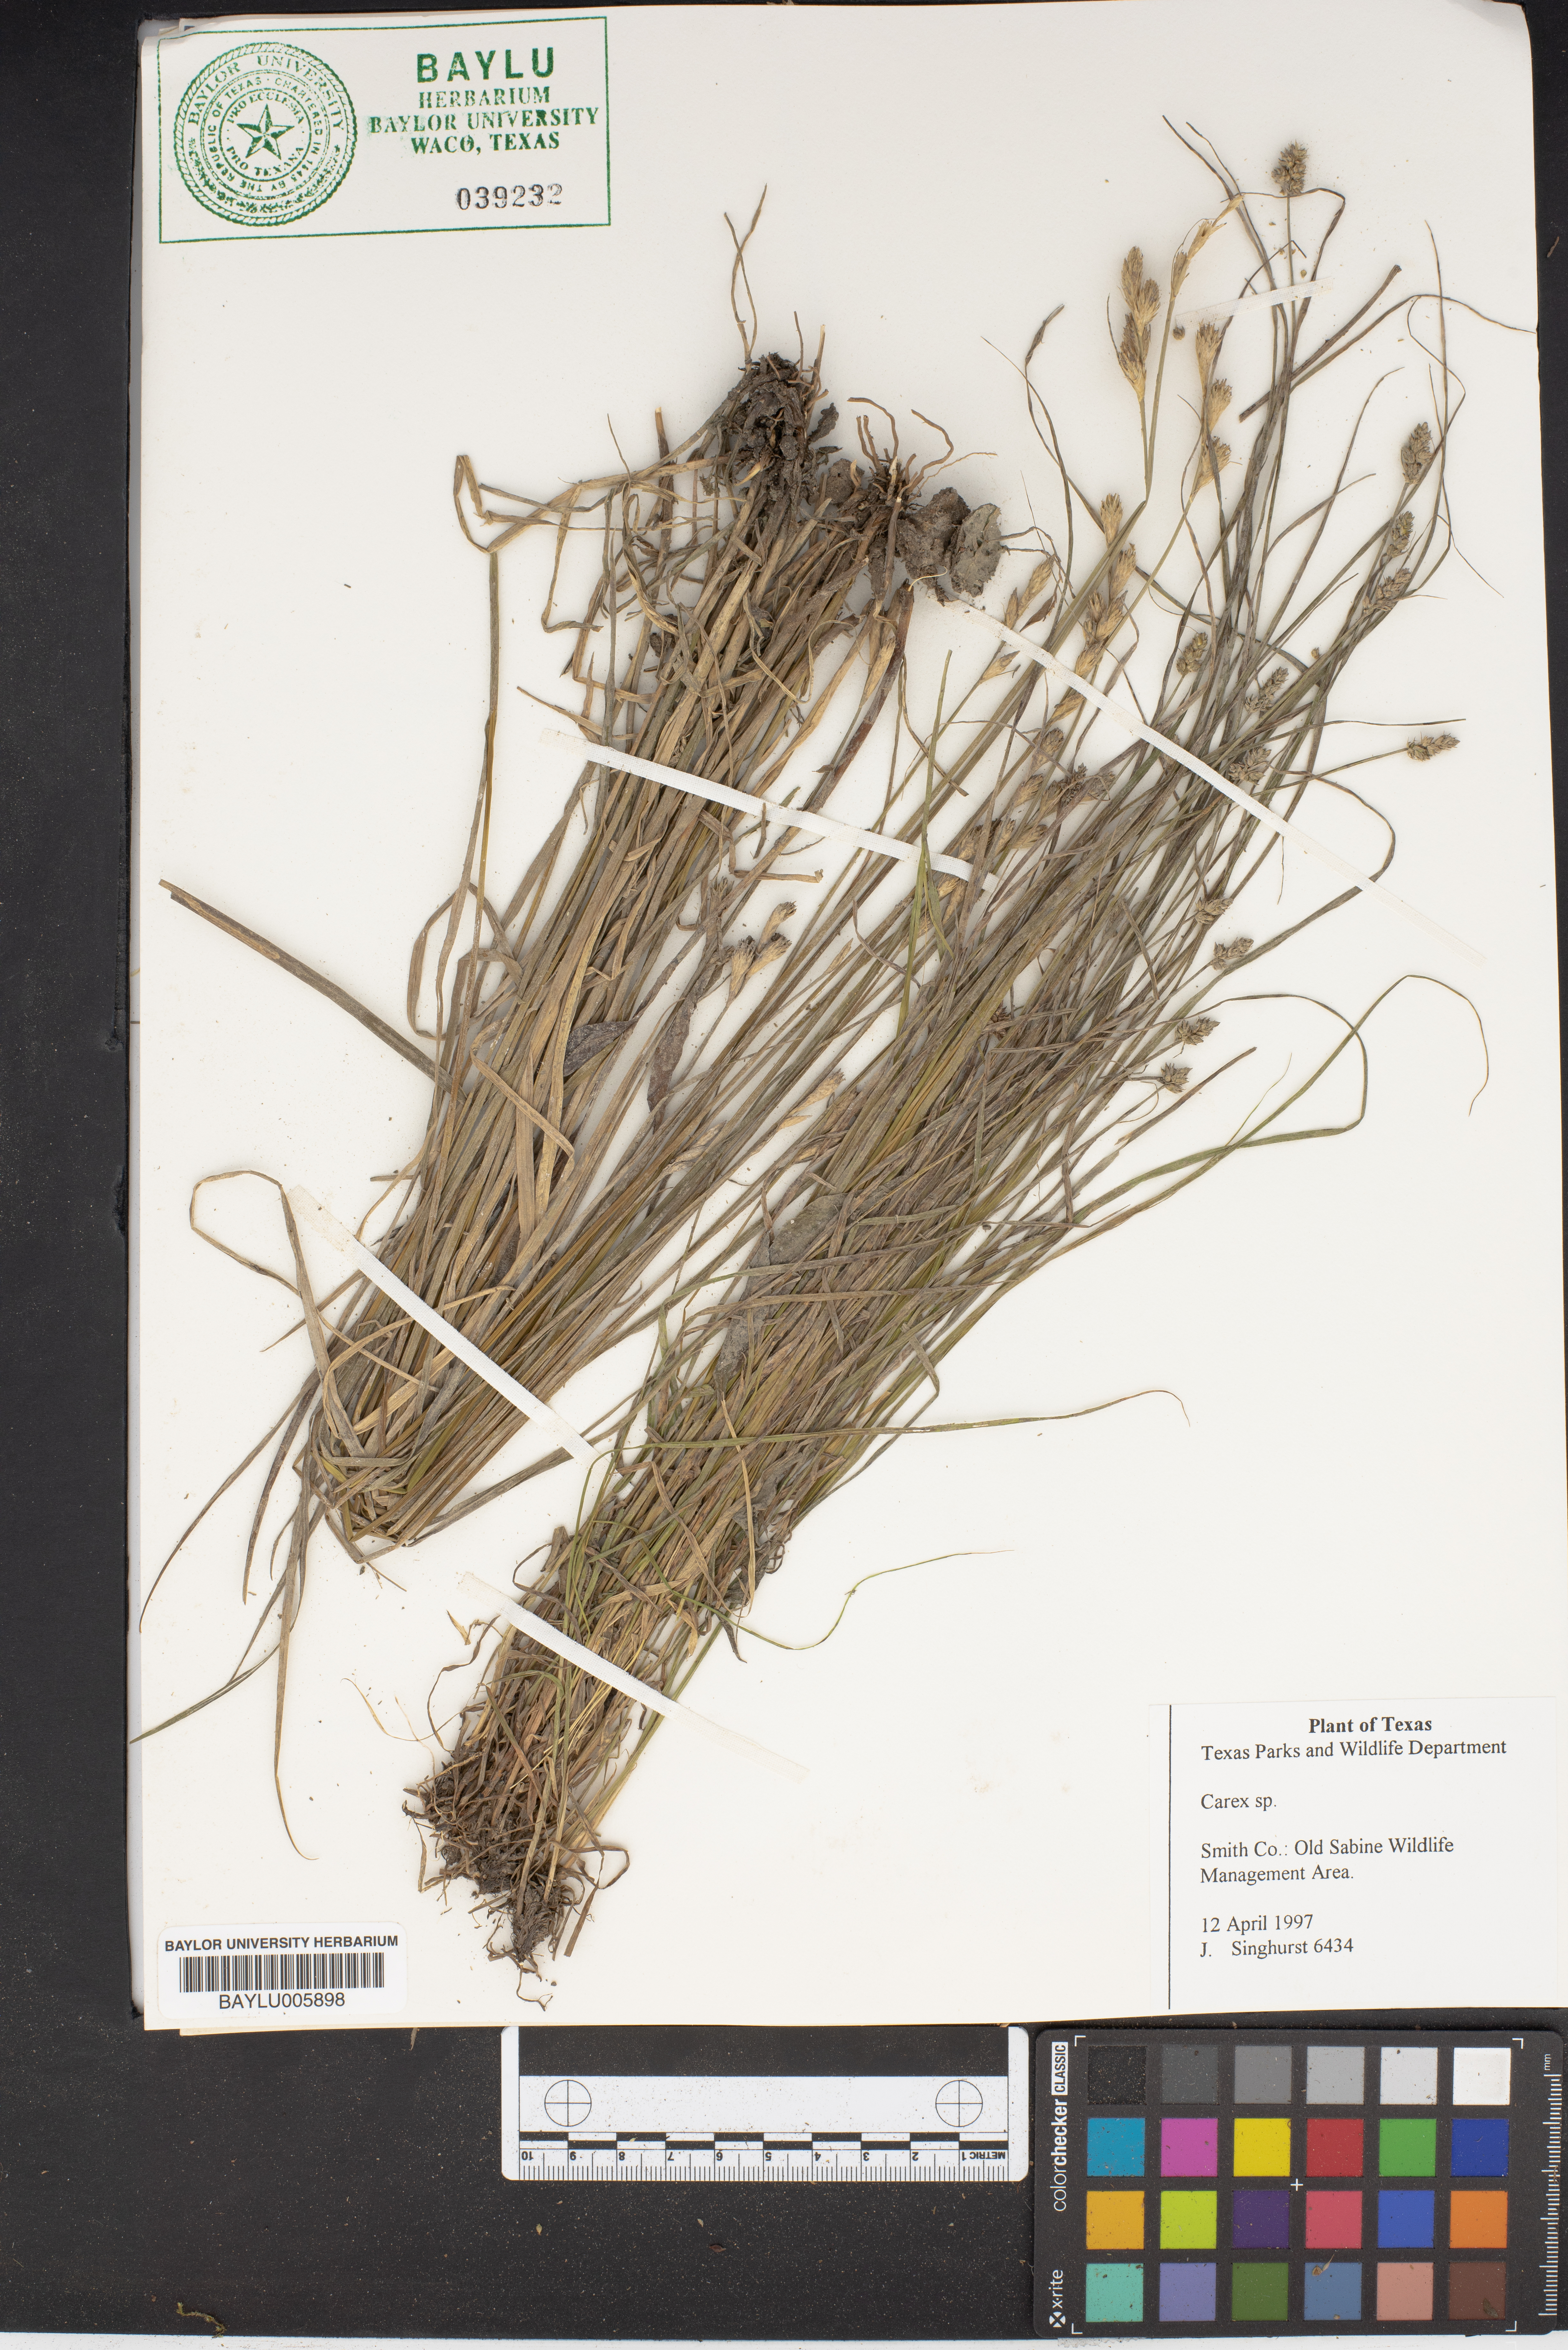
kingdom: Plantae
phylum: Tracheophyta
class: Liliopsida
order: Poales
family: Cyperaceae
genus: Carex
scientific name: Carex
